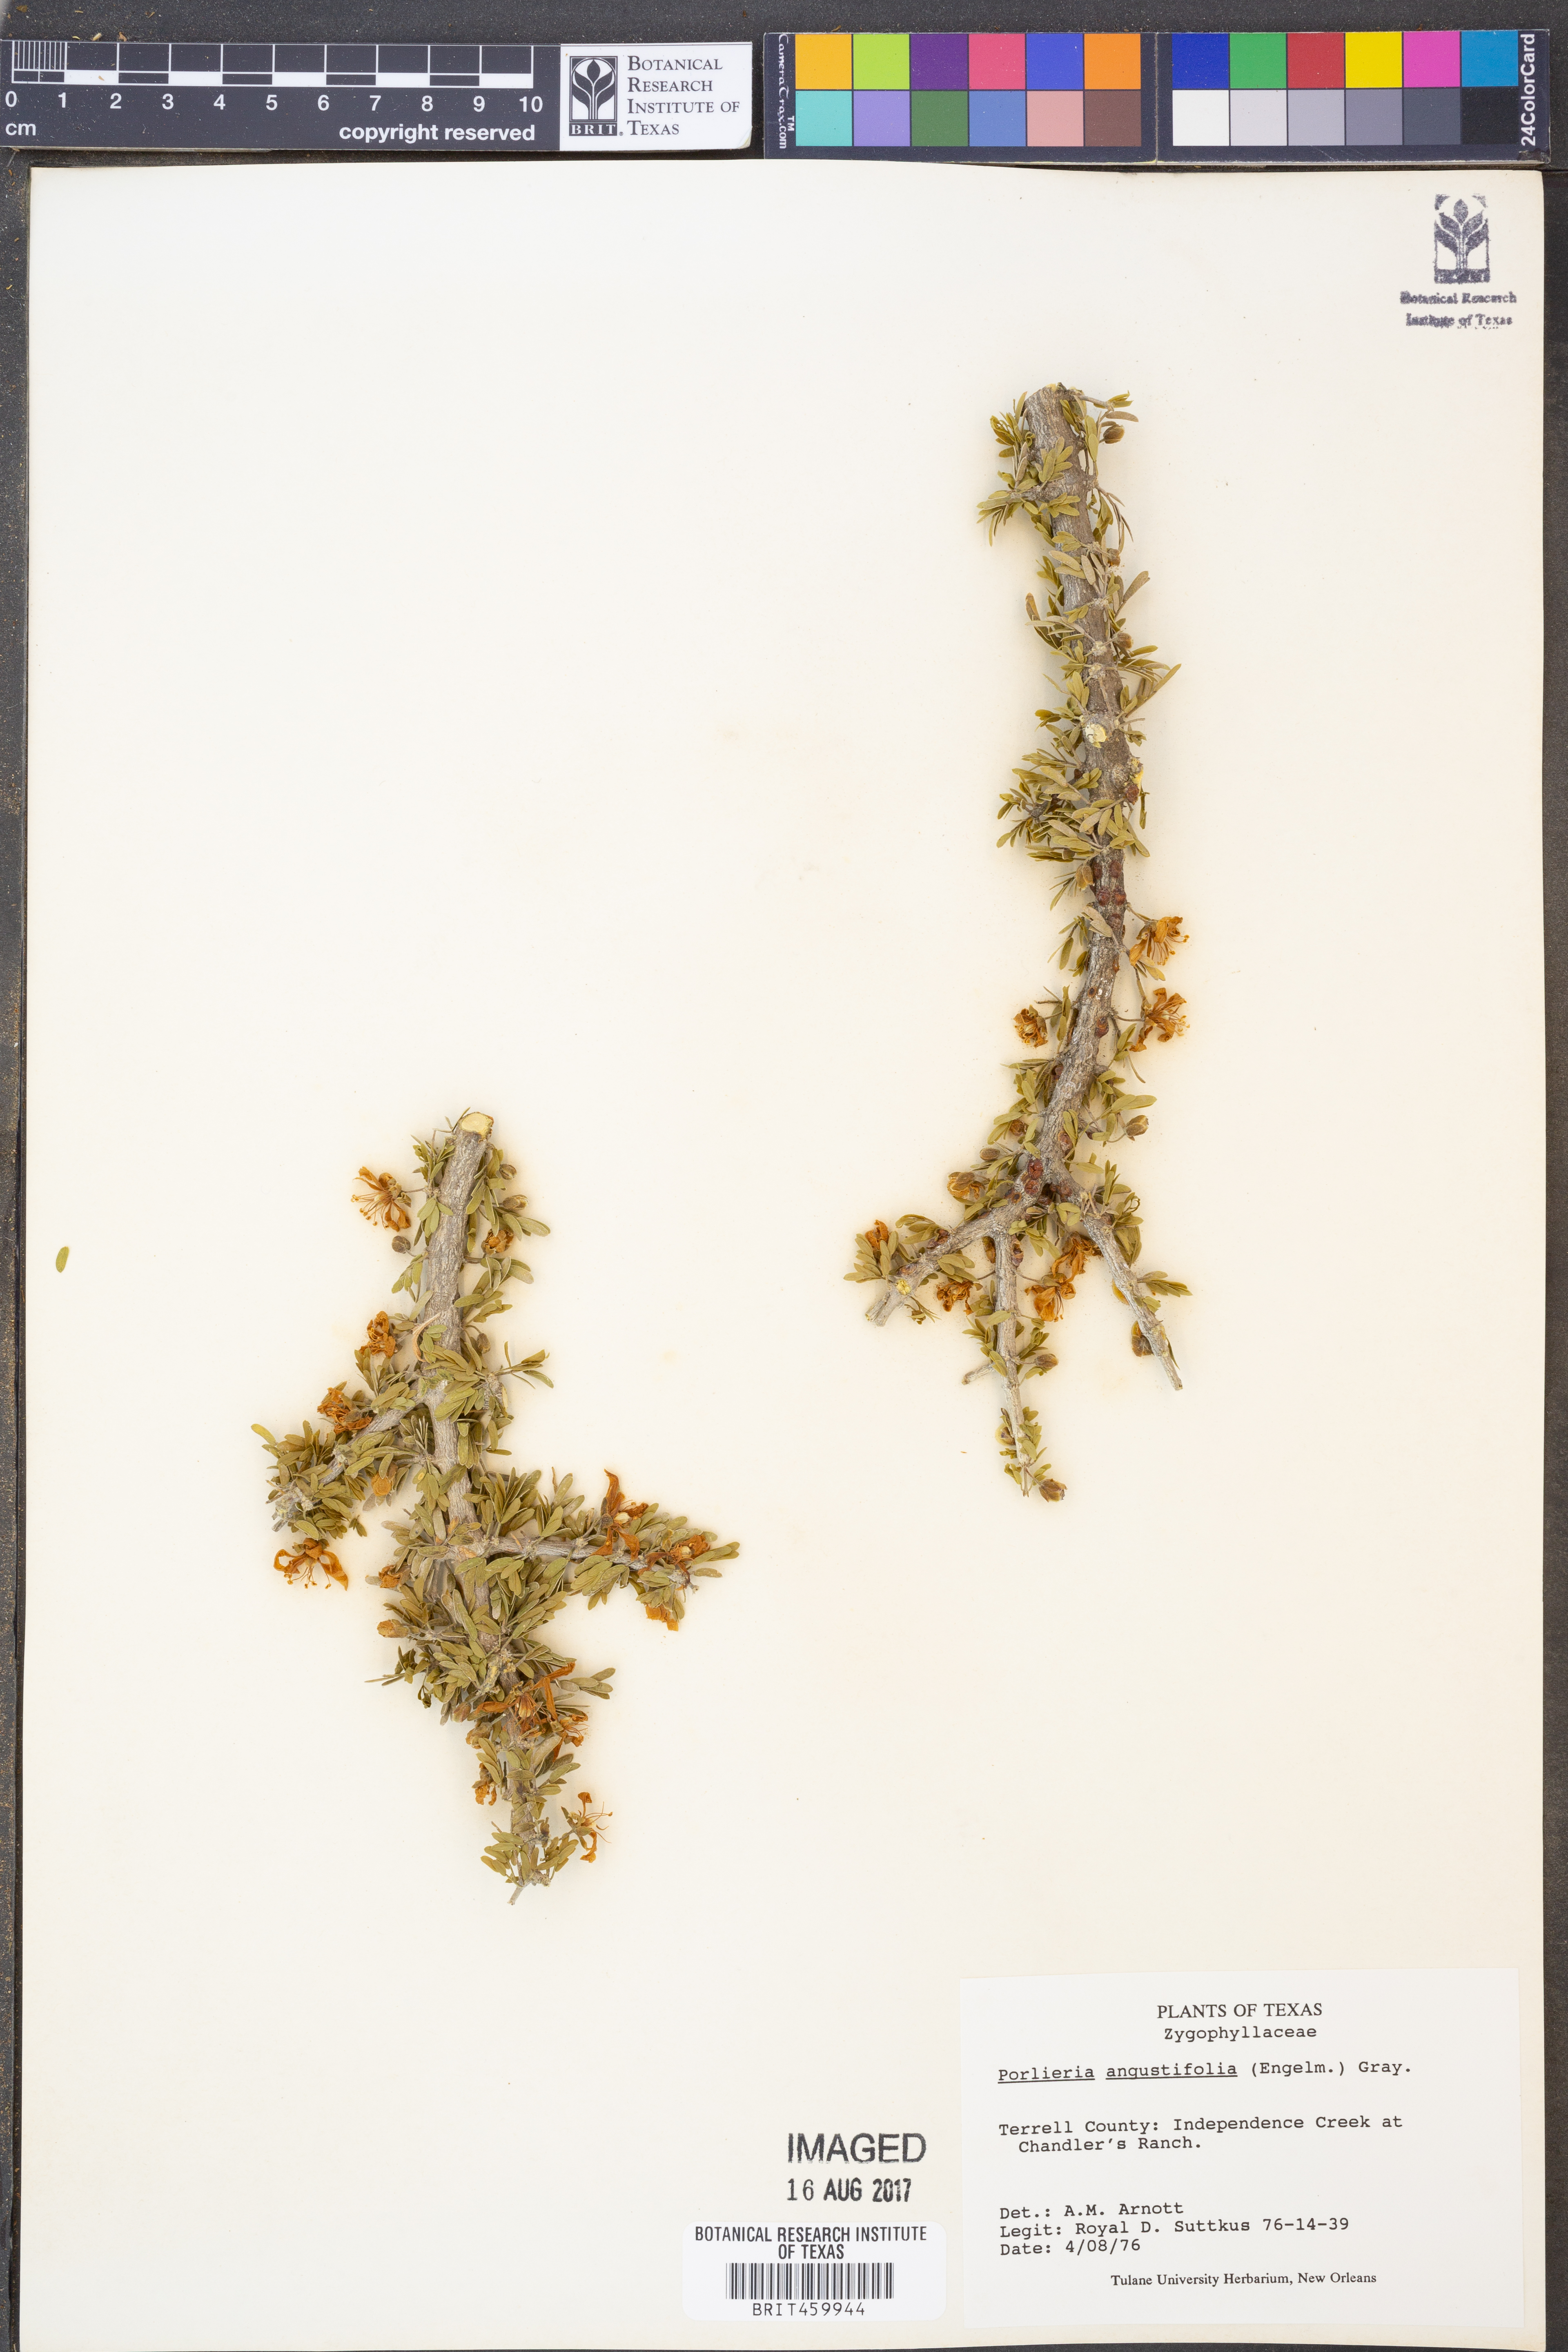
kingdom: Plantae
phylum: Tracheophyta
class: Magnoliopsida
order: Zygophyllales
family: Zygophyllaceae
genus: Porlieria
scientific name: Porlieria angustifolia
